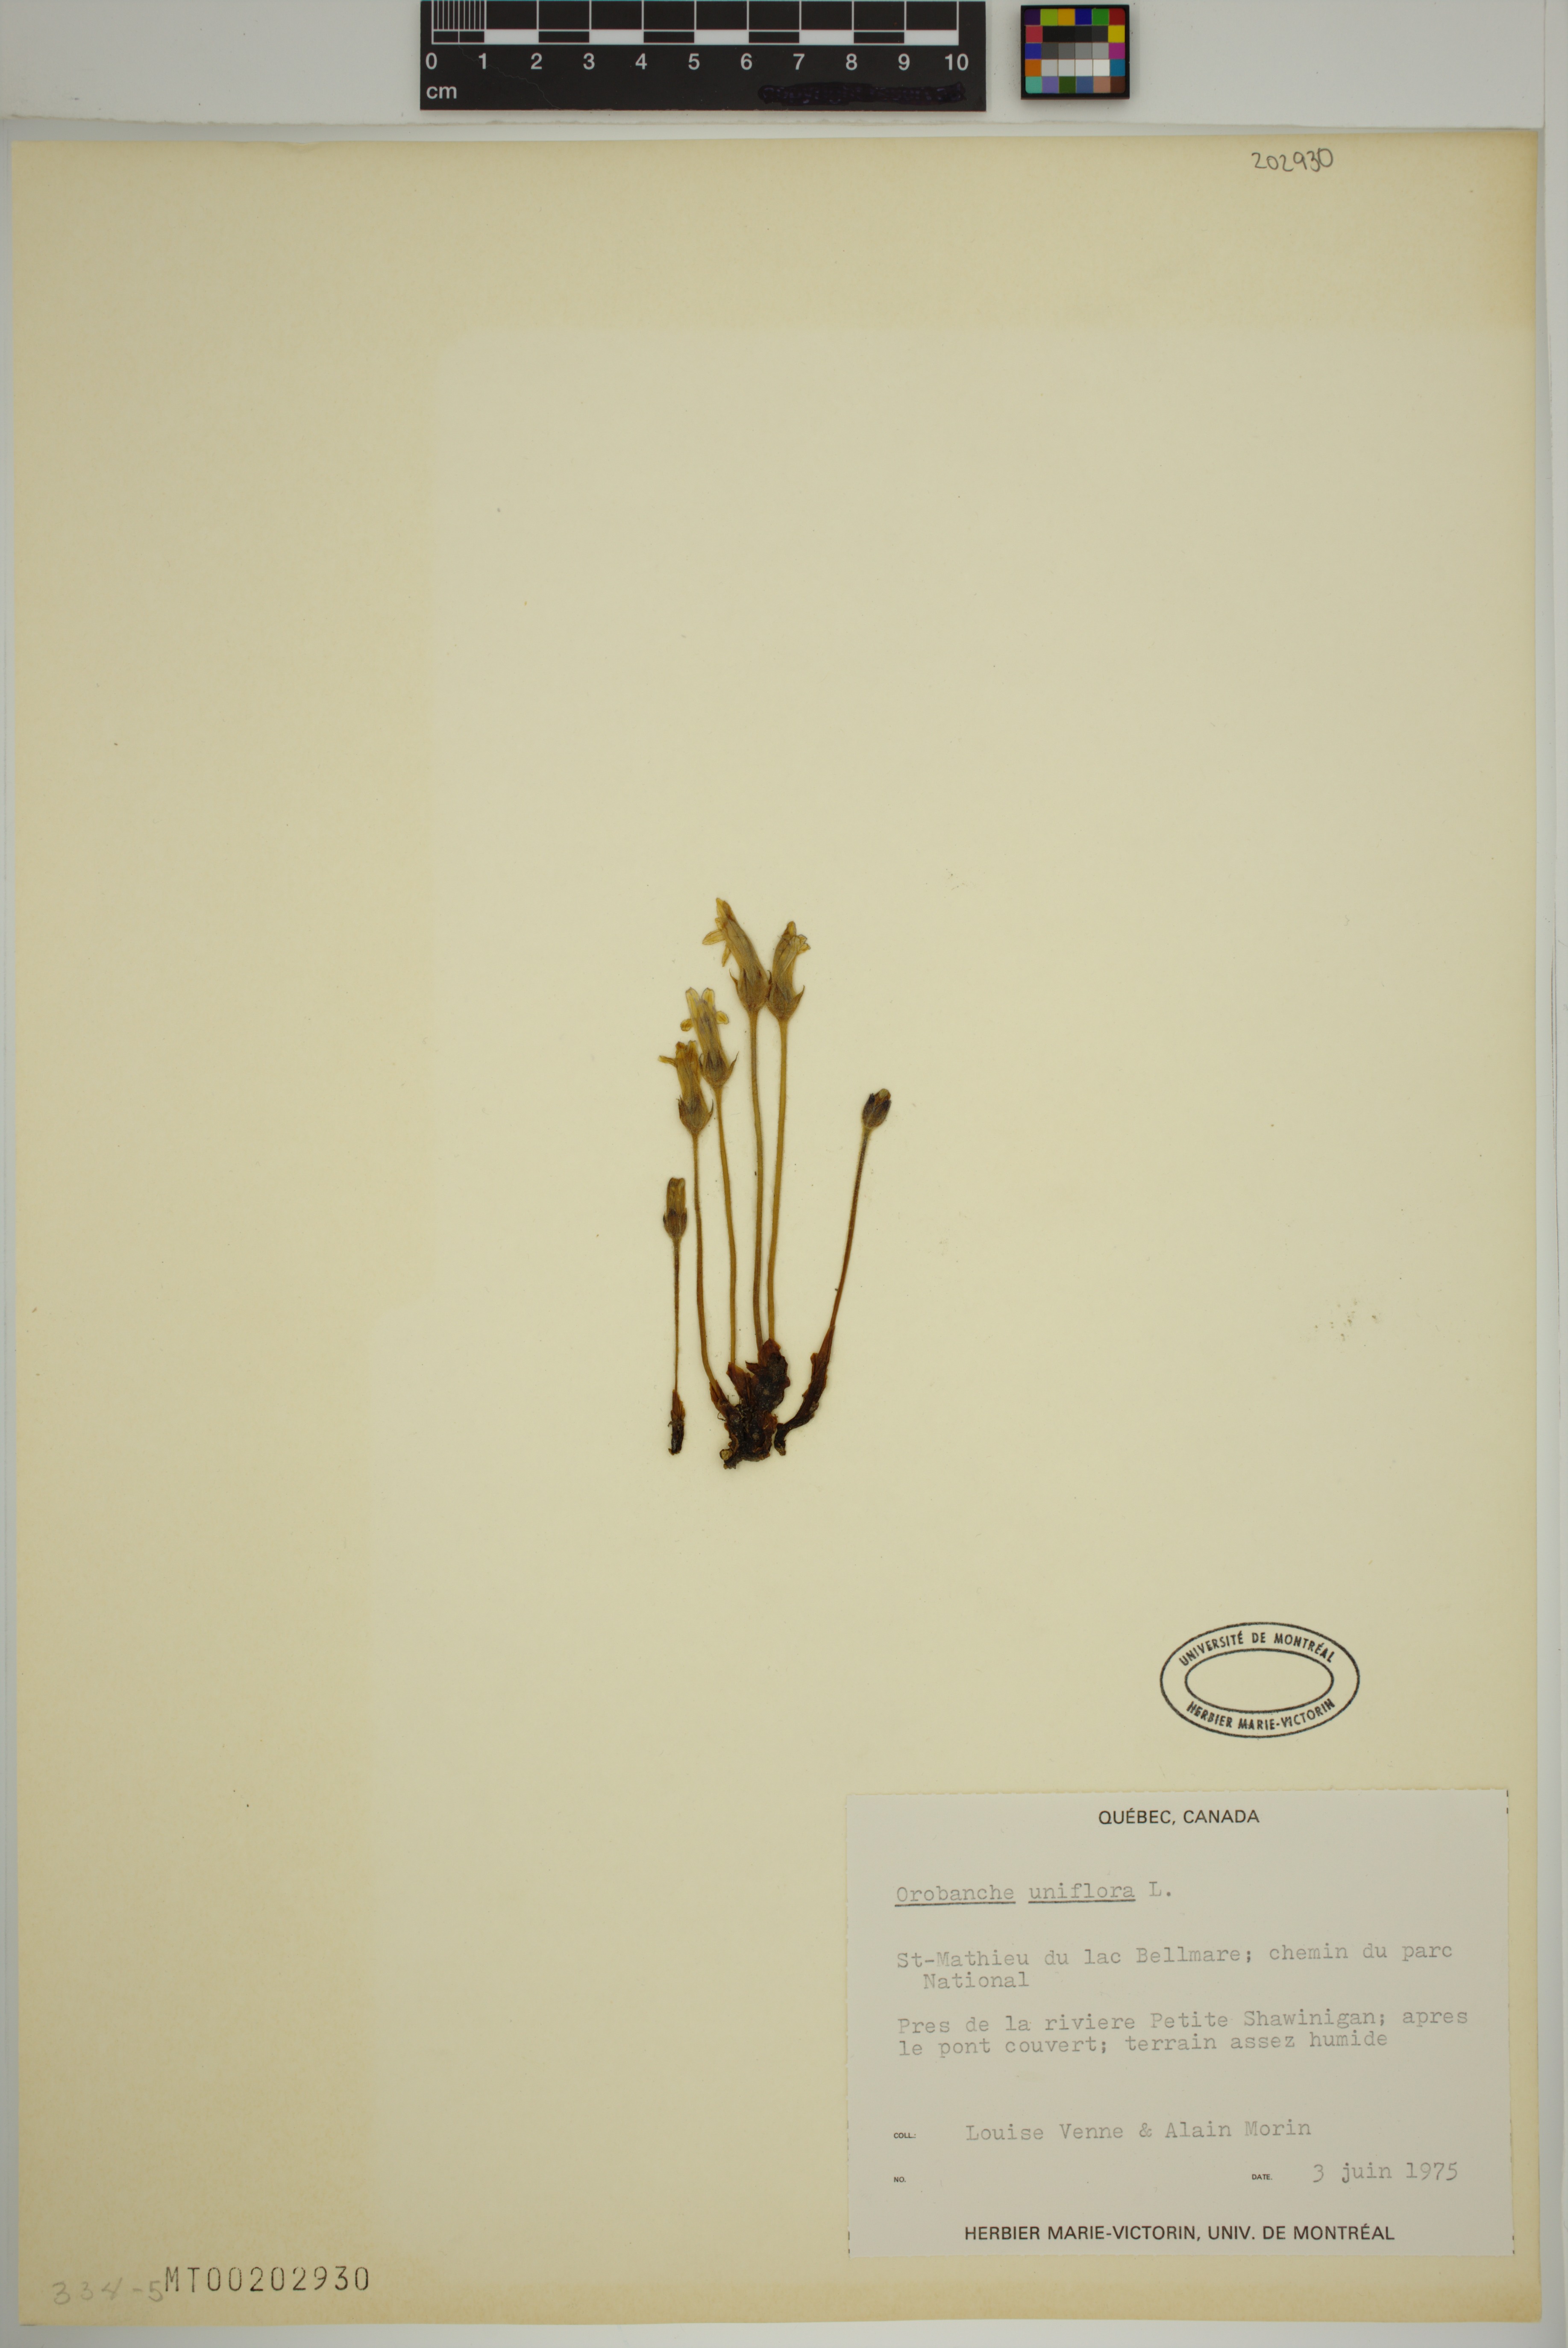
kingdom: Plantae
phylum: Tracheophyta
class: Magnoliopsida
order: Lamiales
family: Orobanchaceae
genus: Aphyllon
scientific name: Aphyllon uniflorum
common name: One-flowered broomrape
